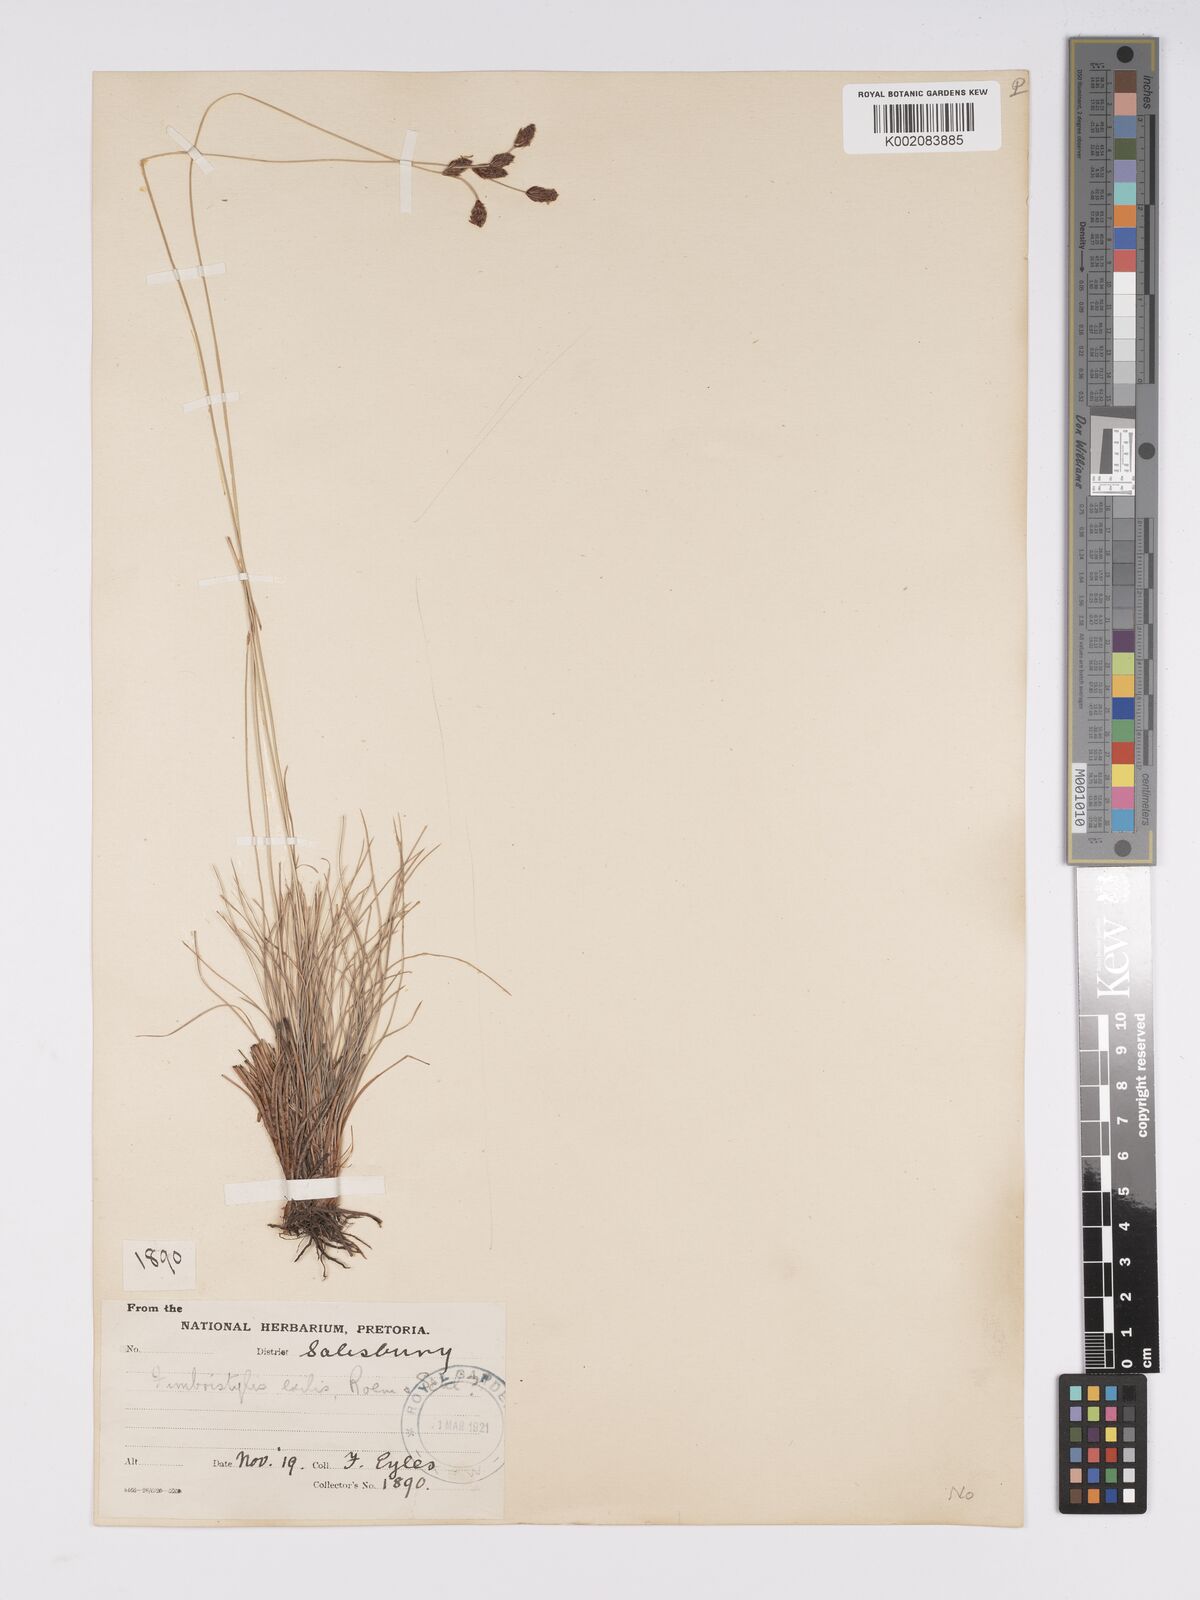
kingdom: Plantae
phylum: Tracheophyta
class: Liliopsida
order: Poales
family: Cyperaceae
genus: Bulbostylis
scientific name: Bulbostylis hispidula
